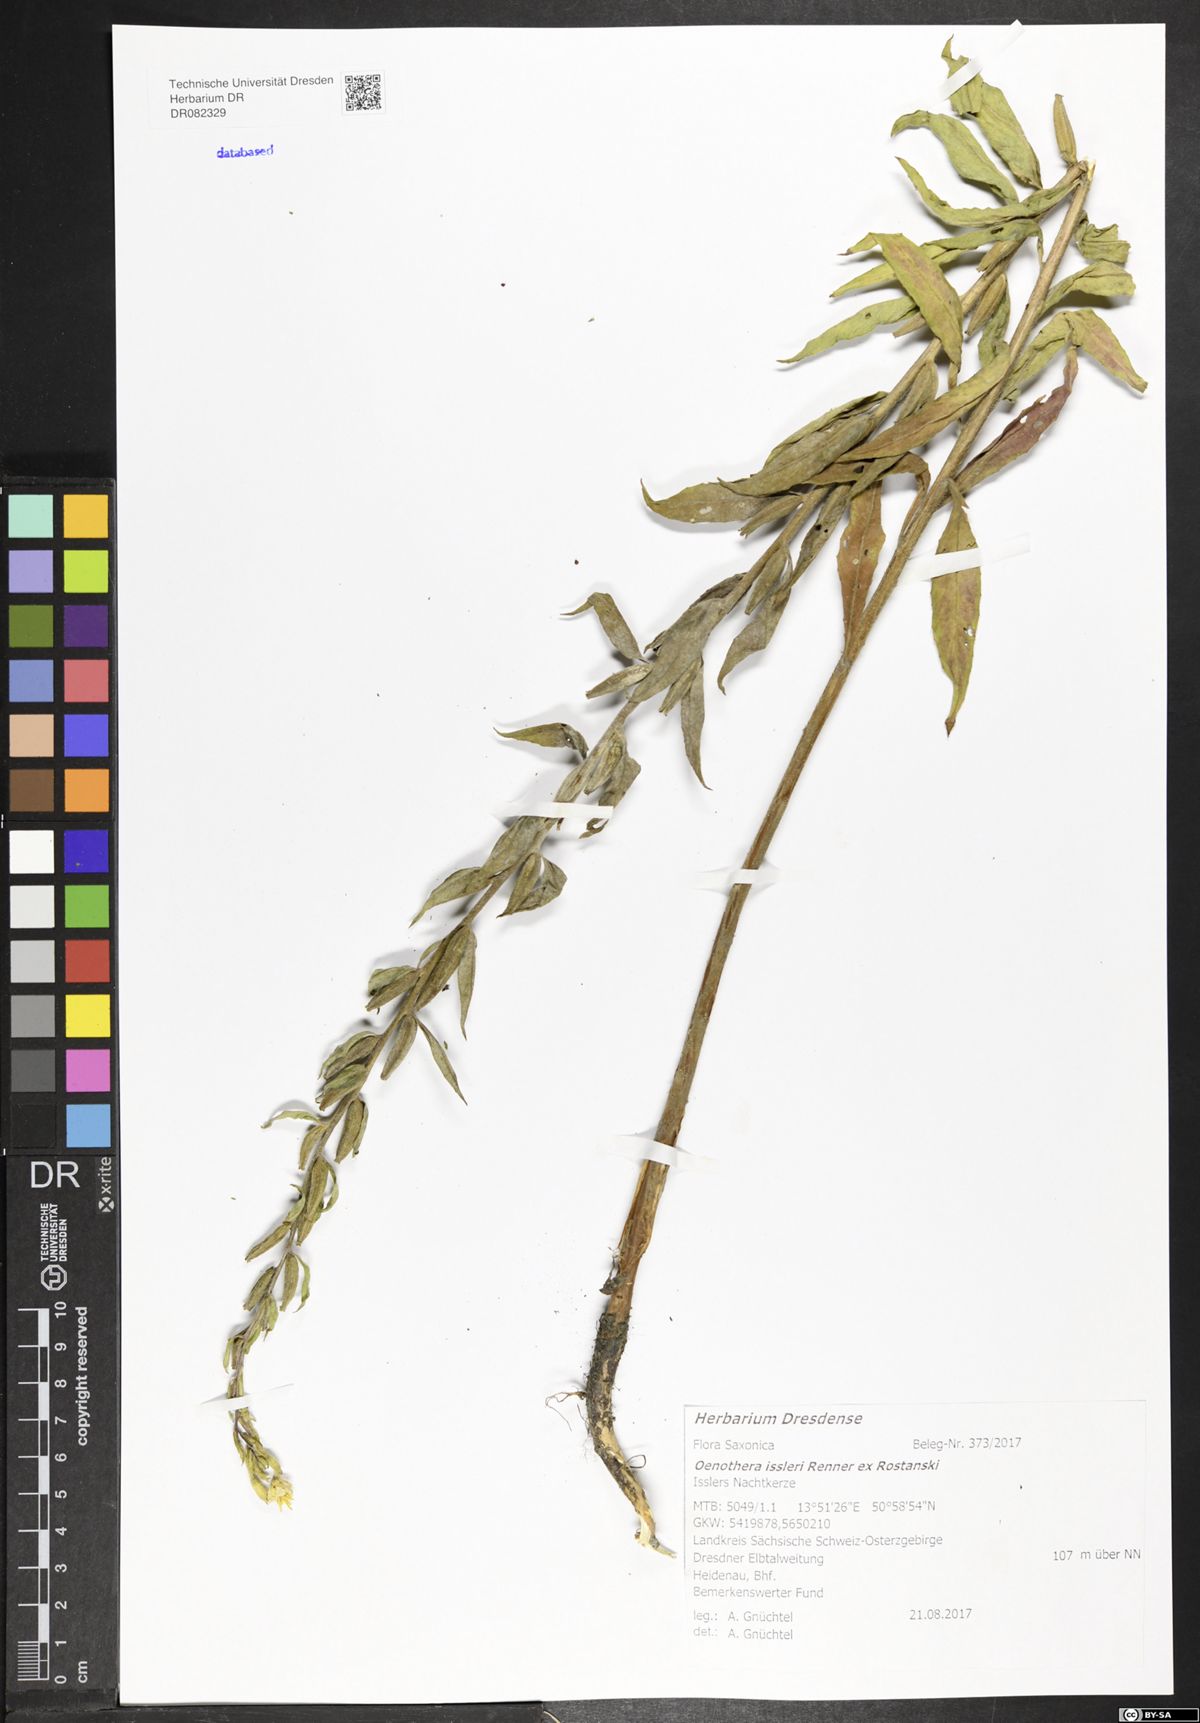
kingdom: Plantae
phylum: Tracheophyta
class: Magnoliopsida
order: Myrtales
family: Onagraceae
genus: Oenothera
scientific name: Oenothera issleri
